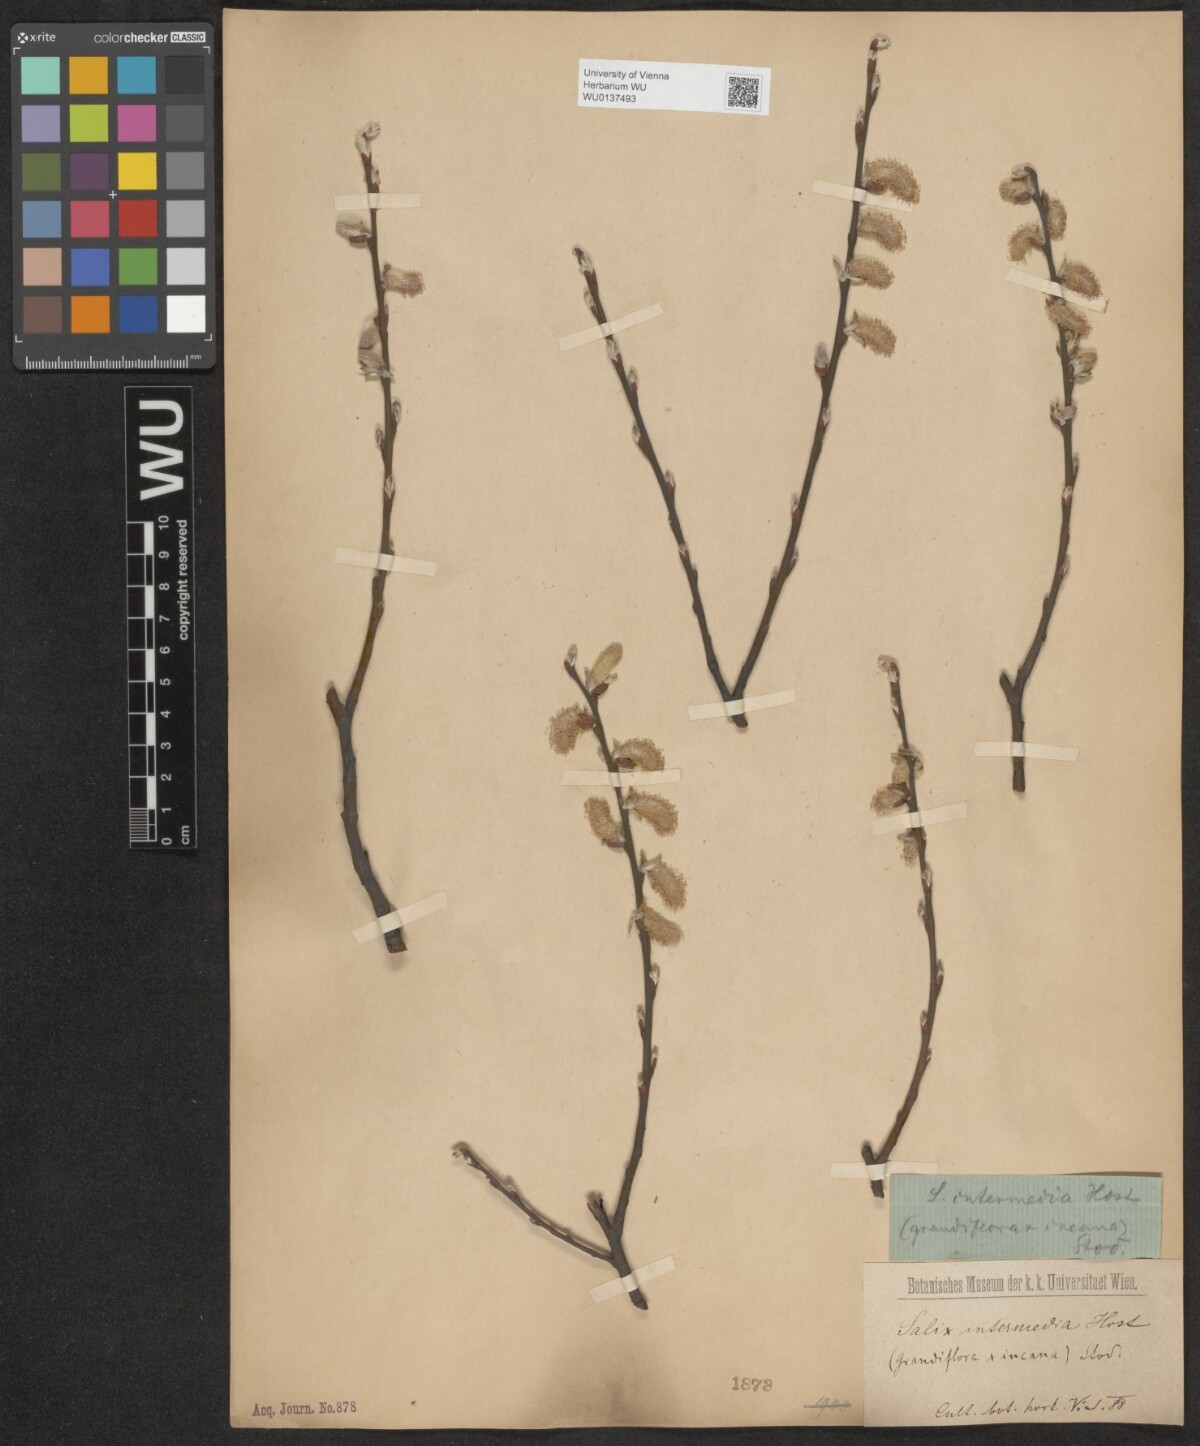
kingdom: Plantae
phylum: Tracheophyta
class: Magnoliopsida
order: Malpighiales
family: Salicaceae
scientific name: Salicaceae
